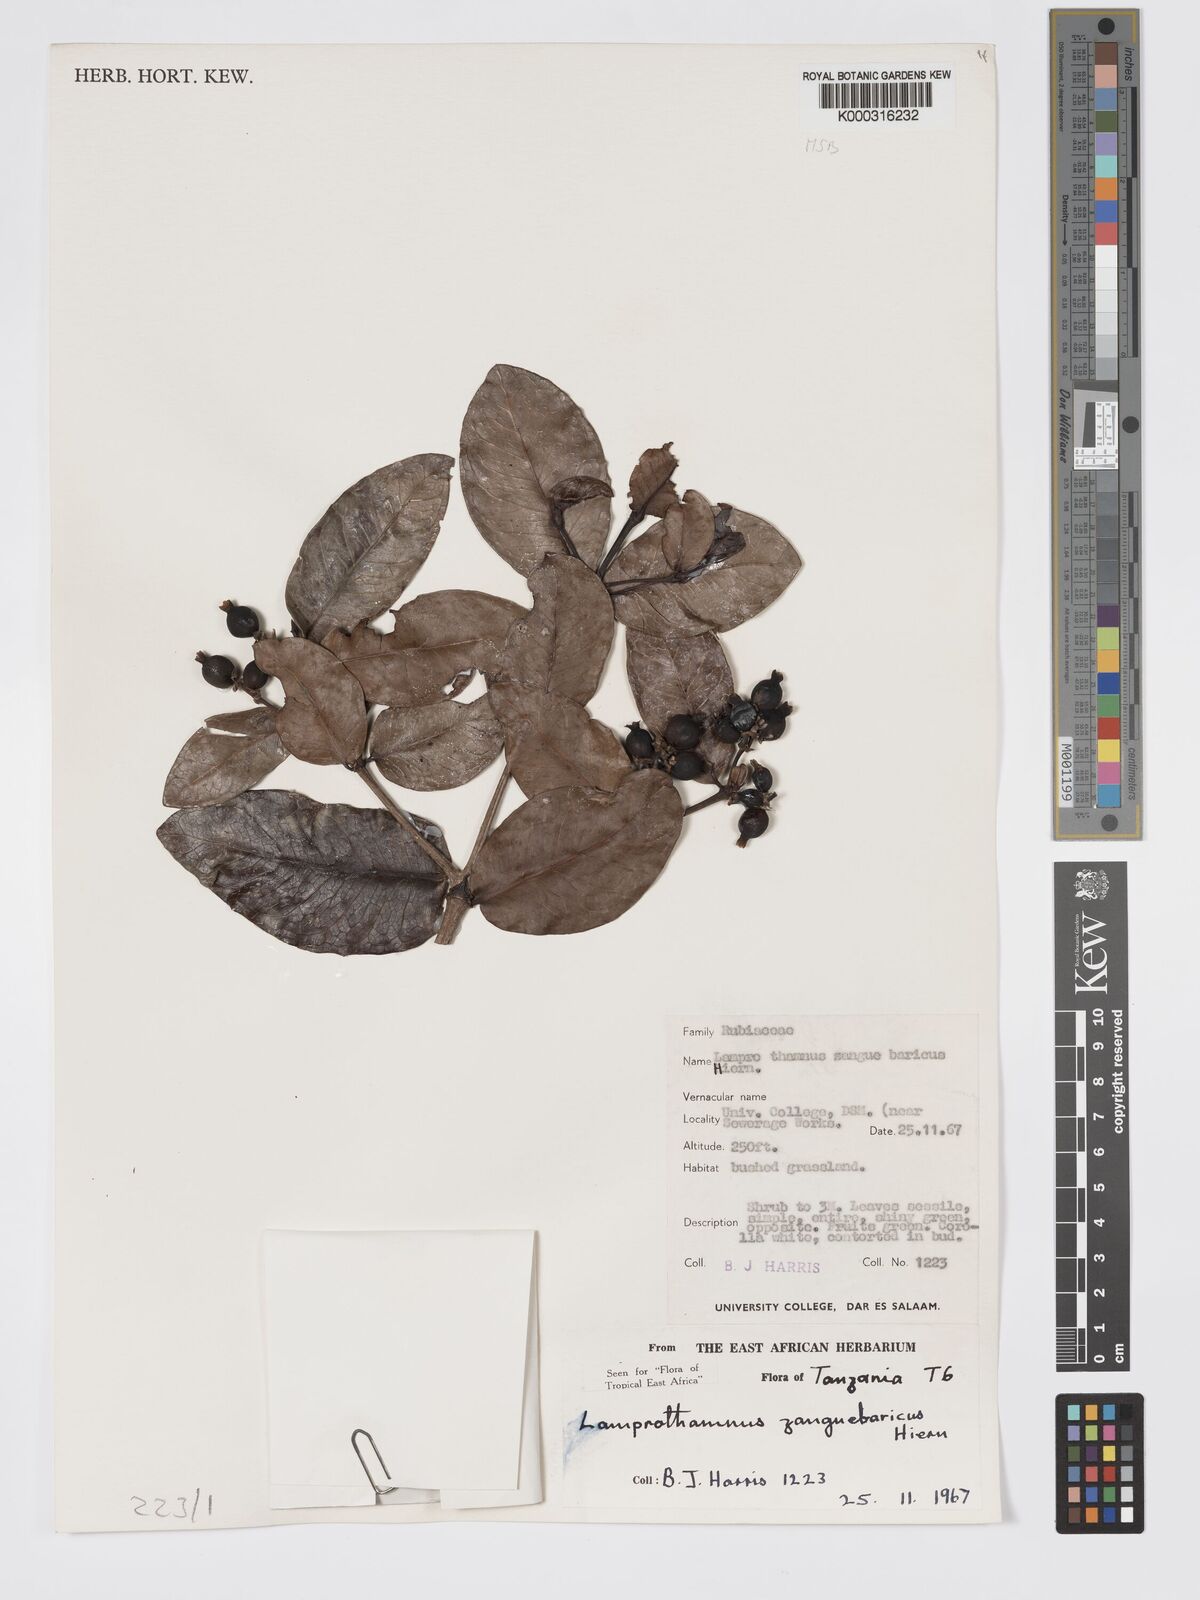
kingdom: Plantae
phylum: Tracheophyta
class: Magnoliopsida
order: Gentianales
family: Rubiaceae
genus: Lamprothamnus
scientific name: Lamprothamnus zanguebaricus
